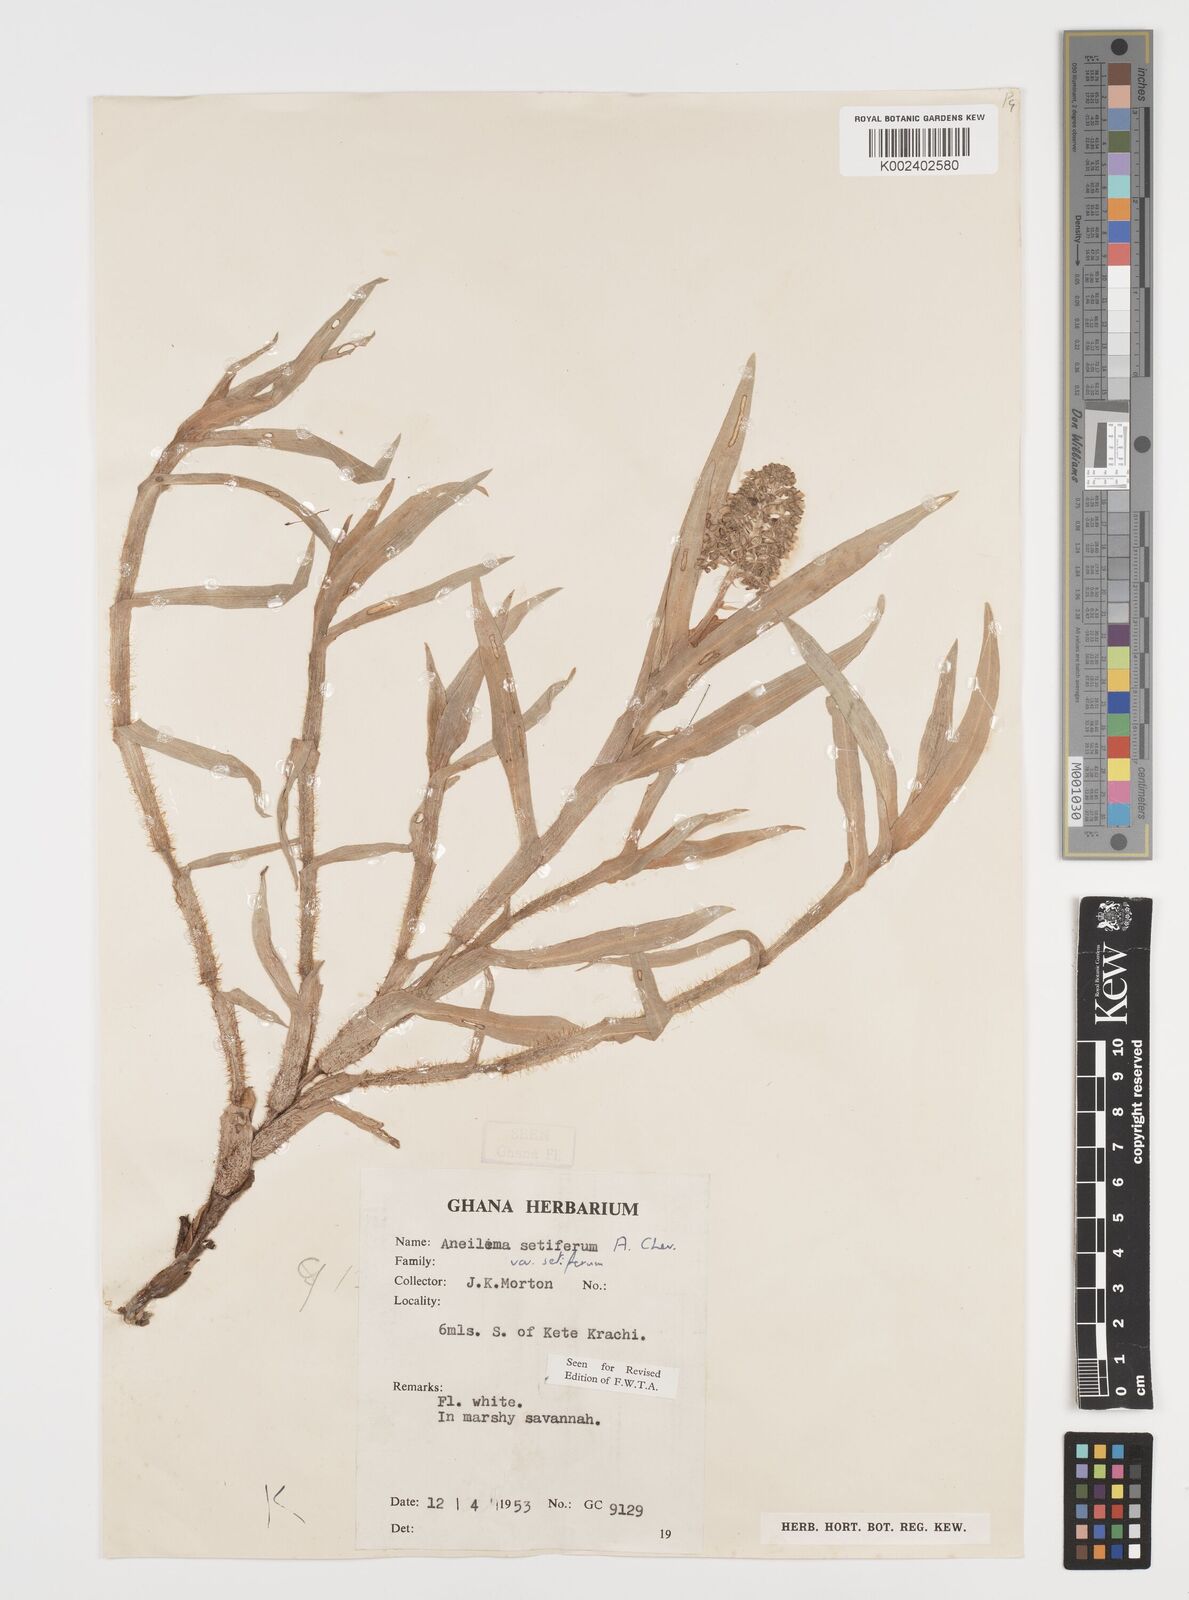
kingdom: Plantae
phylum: Tracheophyta
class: Liliopsida
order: Commelinales
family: Commelinaceae
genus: Aneilema
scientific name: Aneilema setiferum
